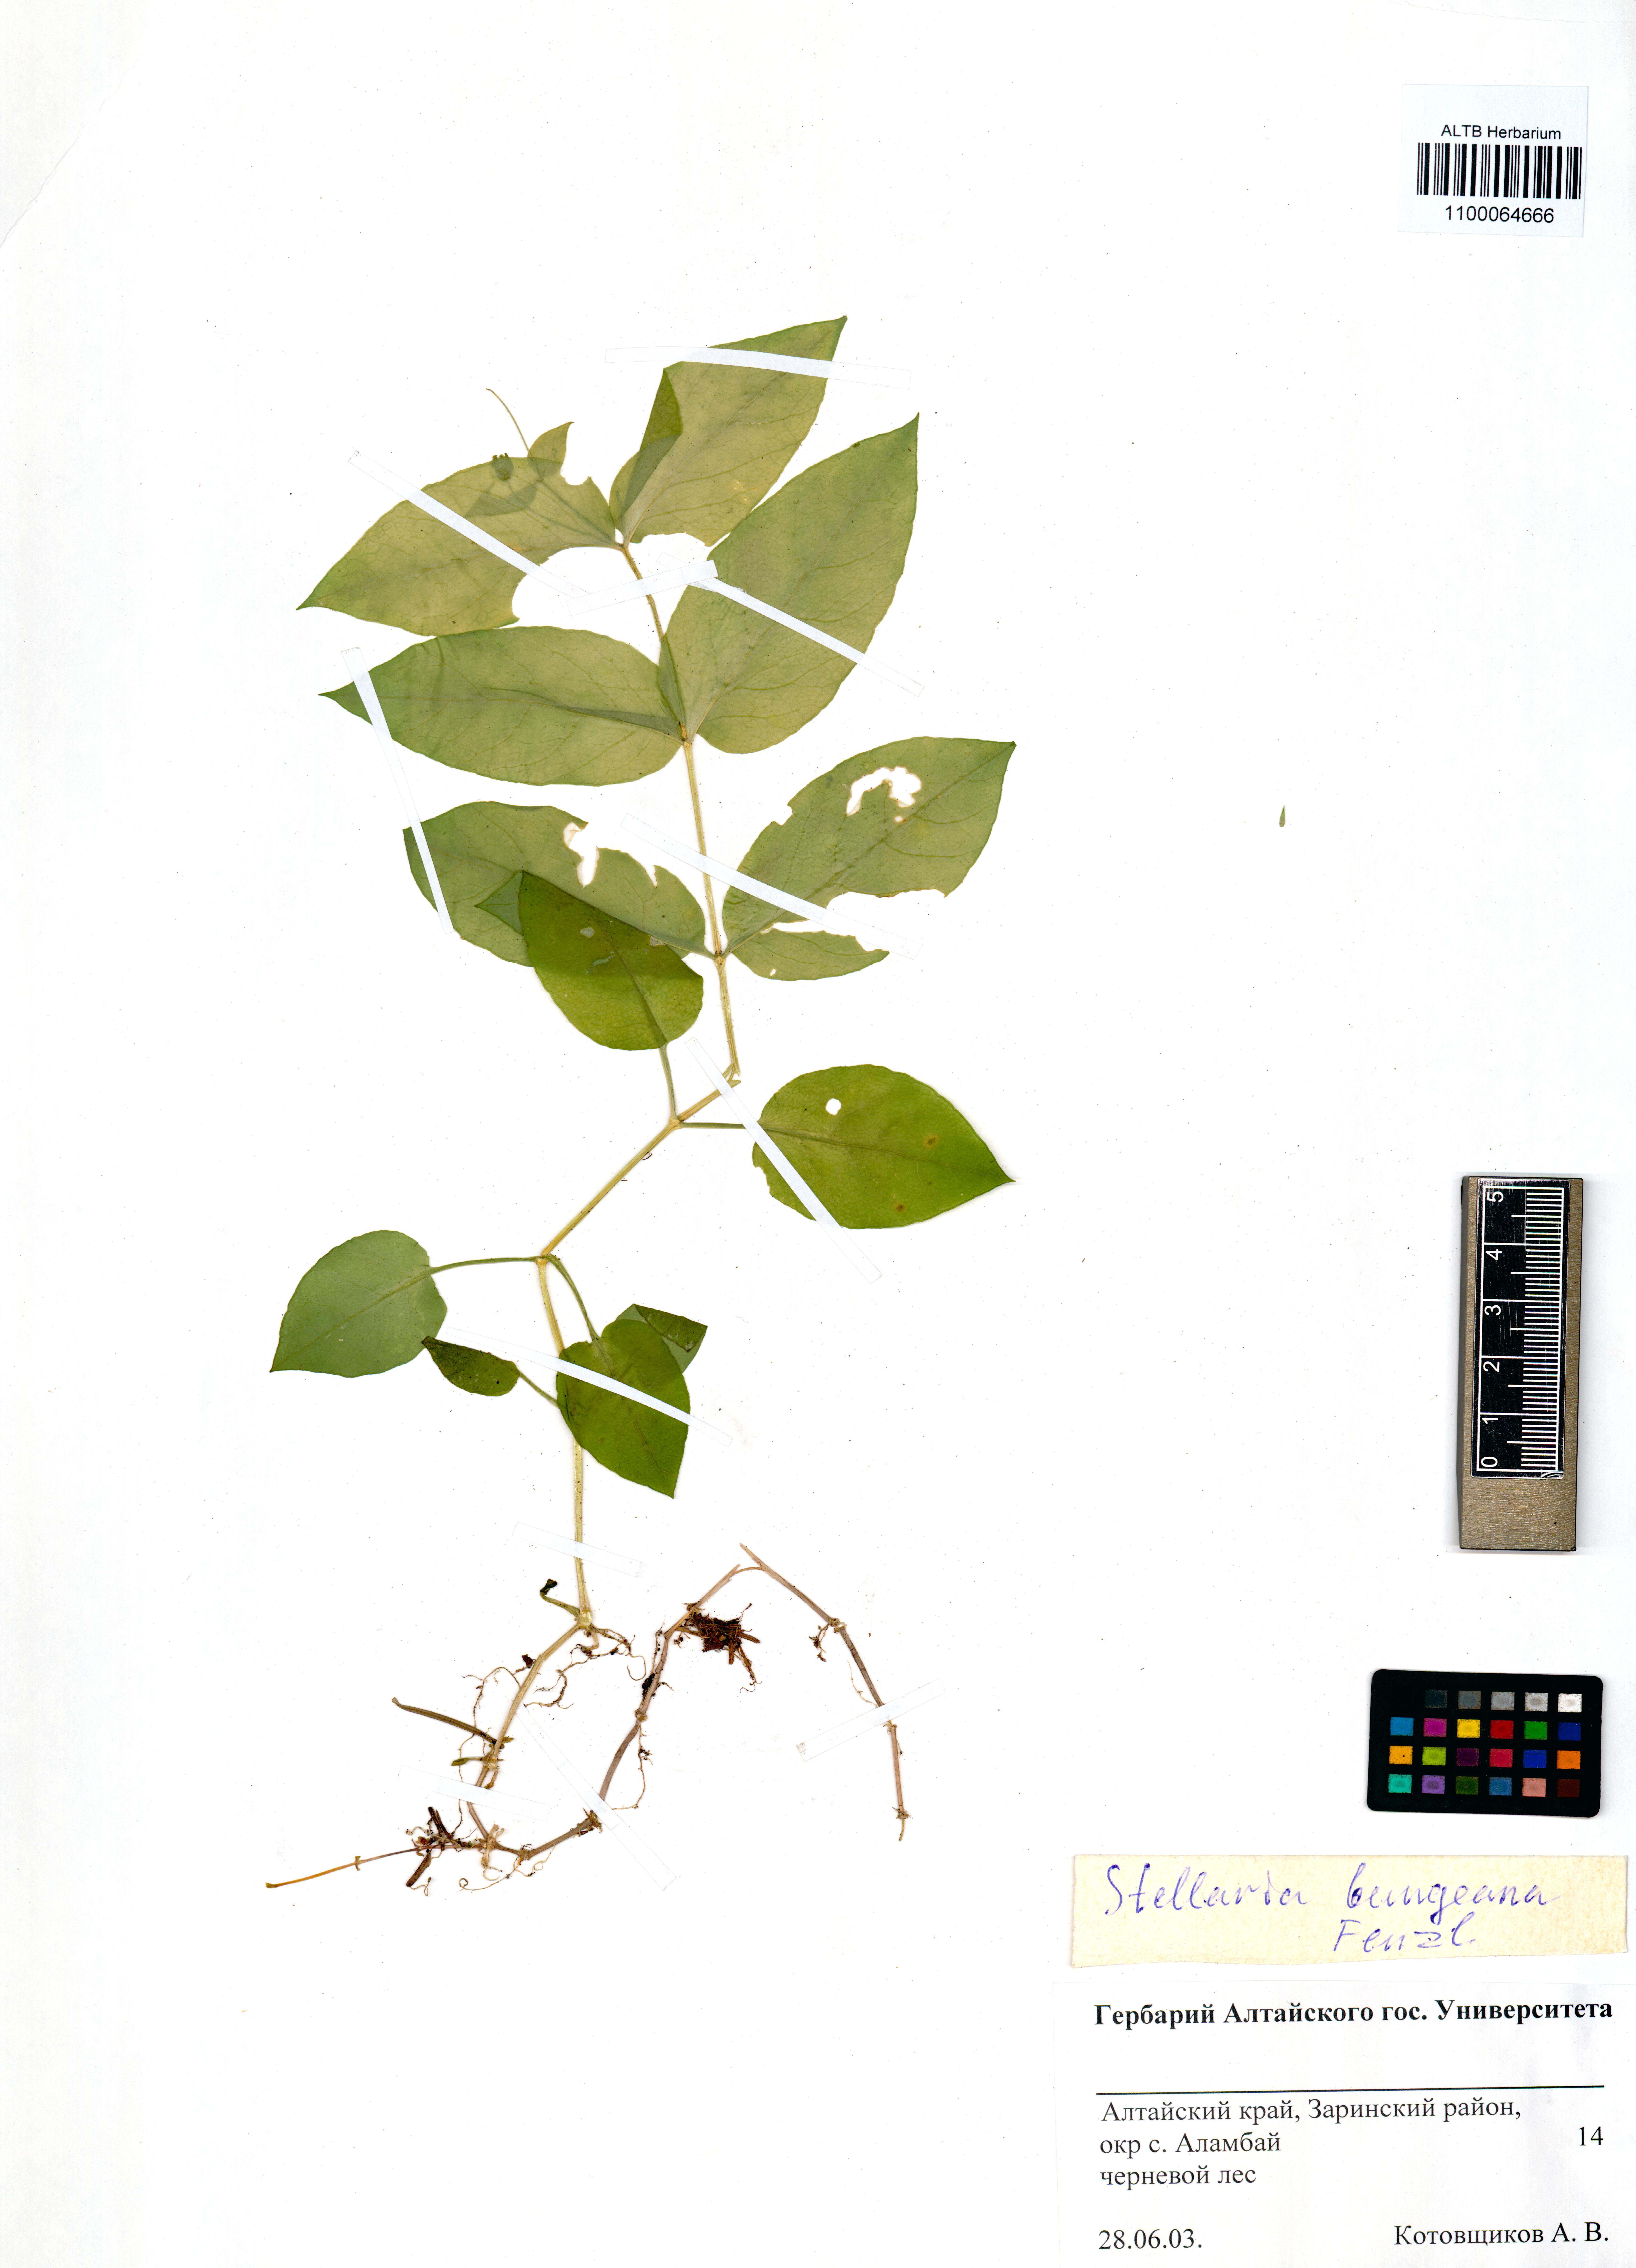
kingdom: Plantae
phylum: Tracheophyta
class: Magnoliopsida
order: Caryophyllales
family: Caryophyllaceae
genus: Stellaria
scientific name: Stellaria bungeana
